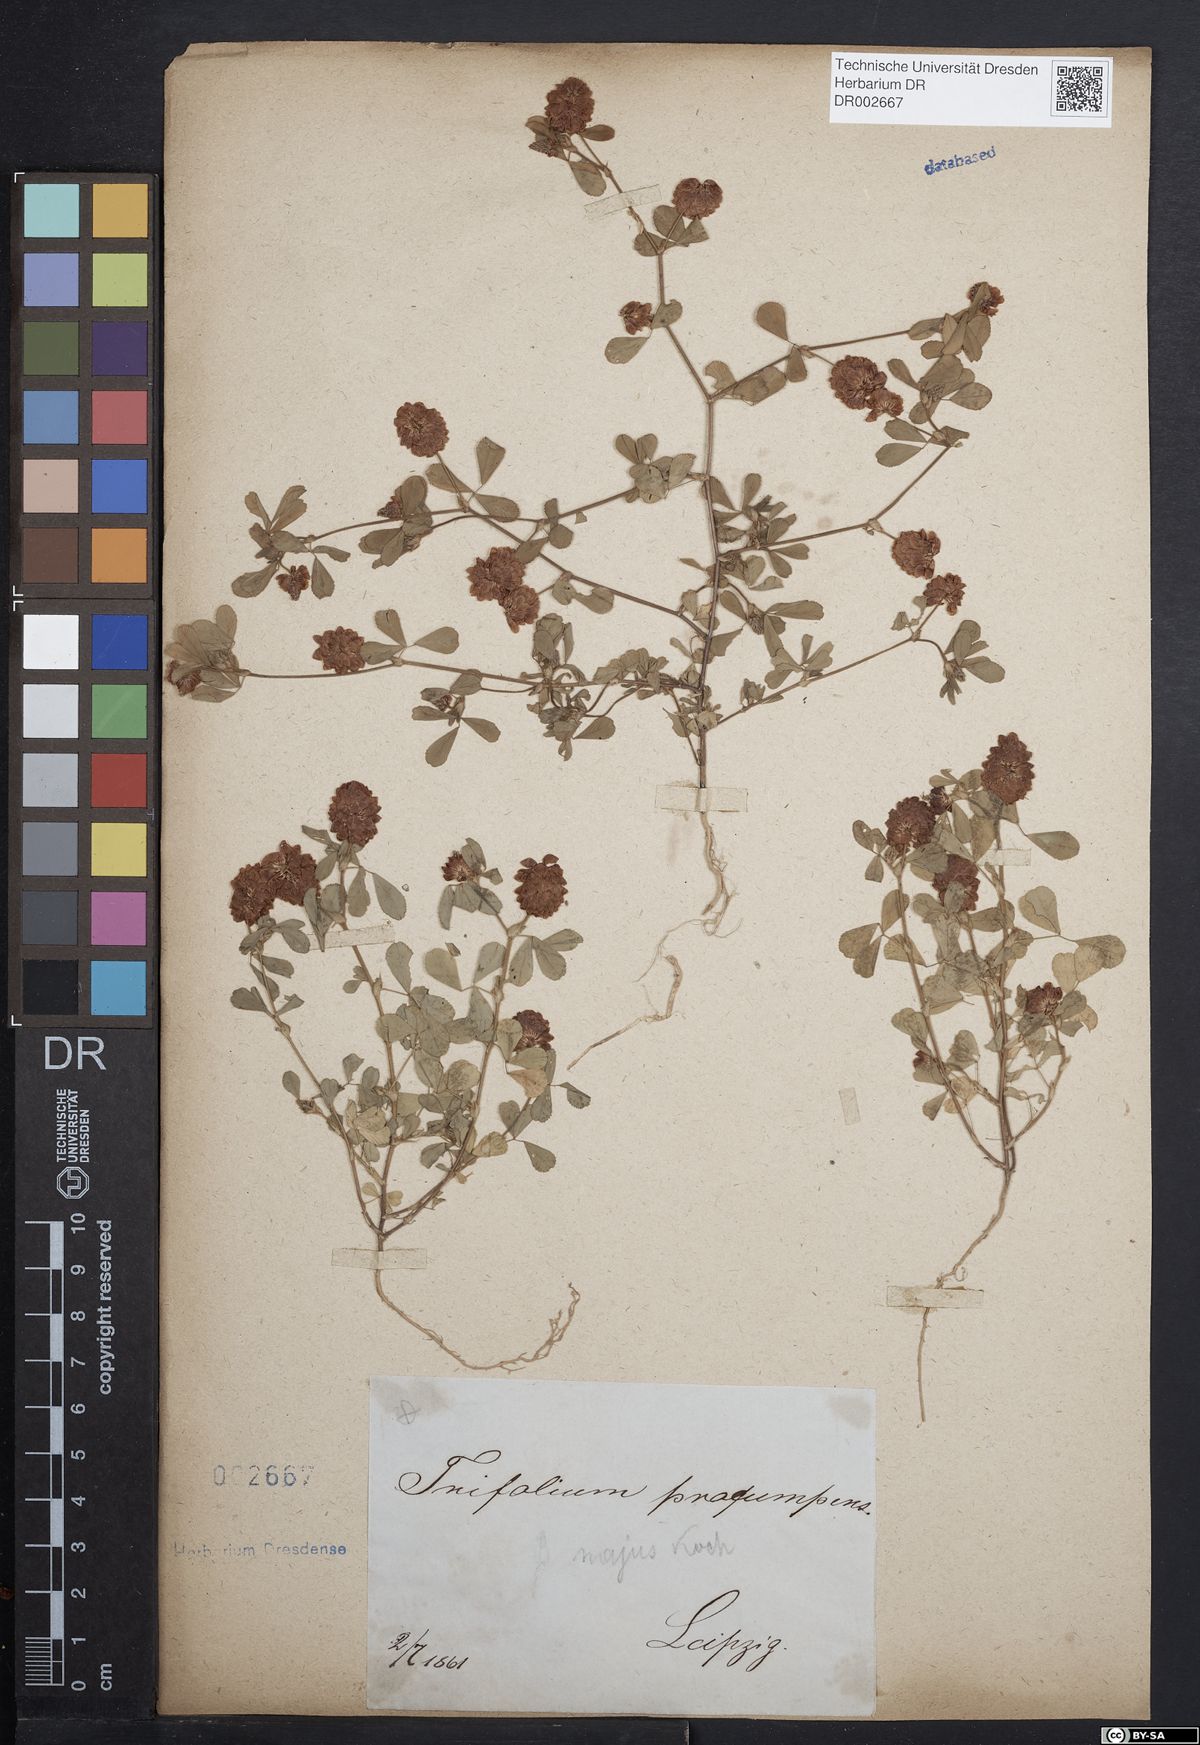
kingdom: Plantae
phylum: Tracheophyta
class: Magnoliopsida
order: Fabales
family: Fabaceae
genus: Trifolium
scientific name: Trifolium campestre
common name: Field clover
